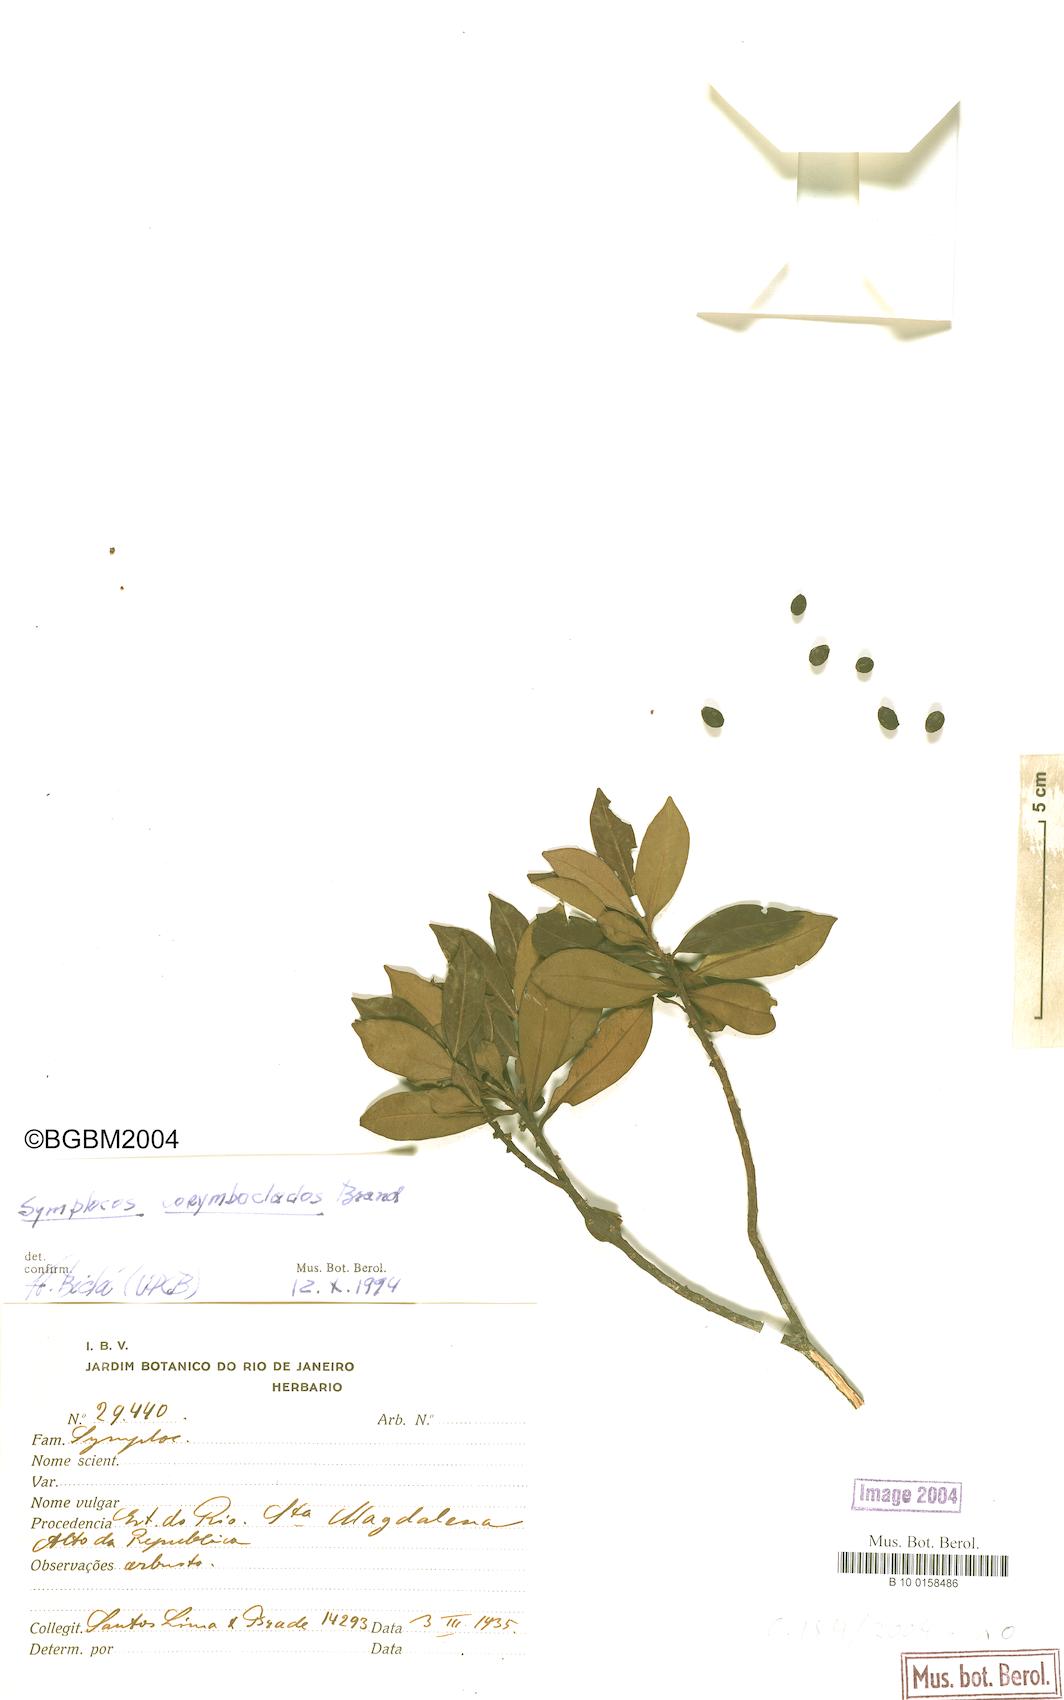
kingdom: Plantae
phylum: Tracheophyta
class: Magnoliopsida
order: Ericales
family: Symplocaceae
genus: Symplocos
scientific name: Symplocos corymboclados
